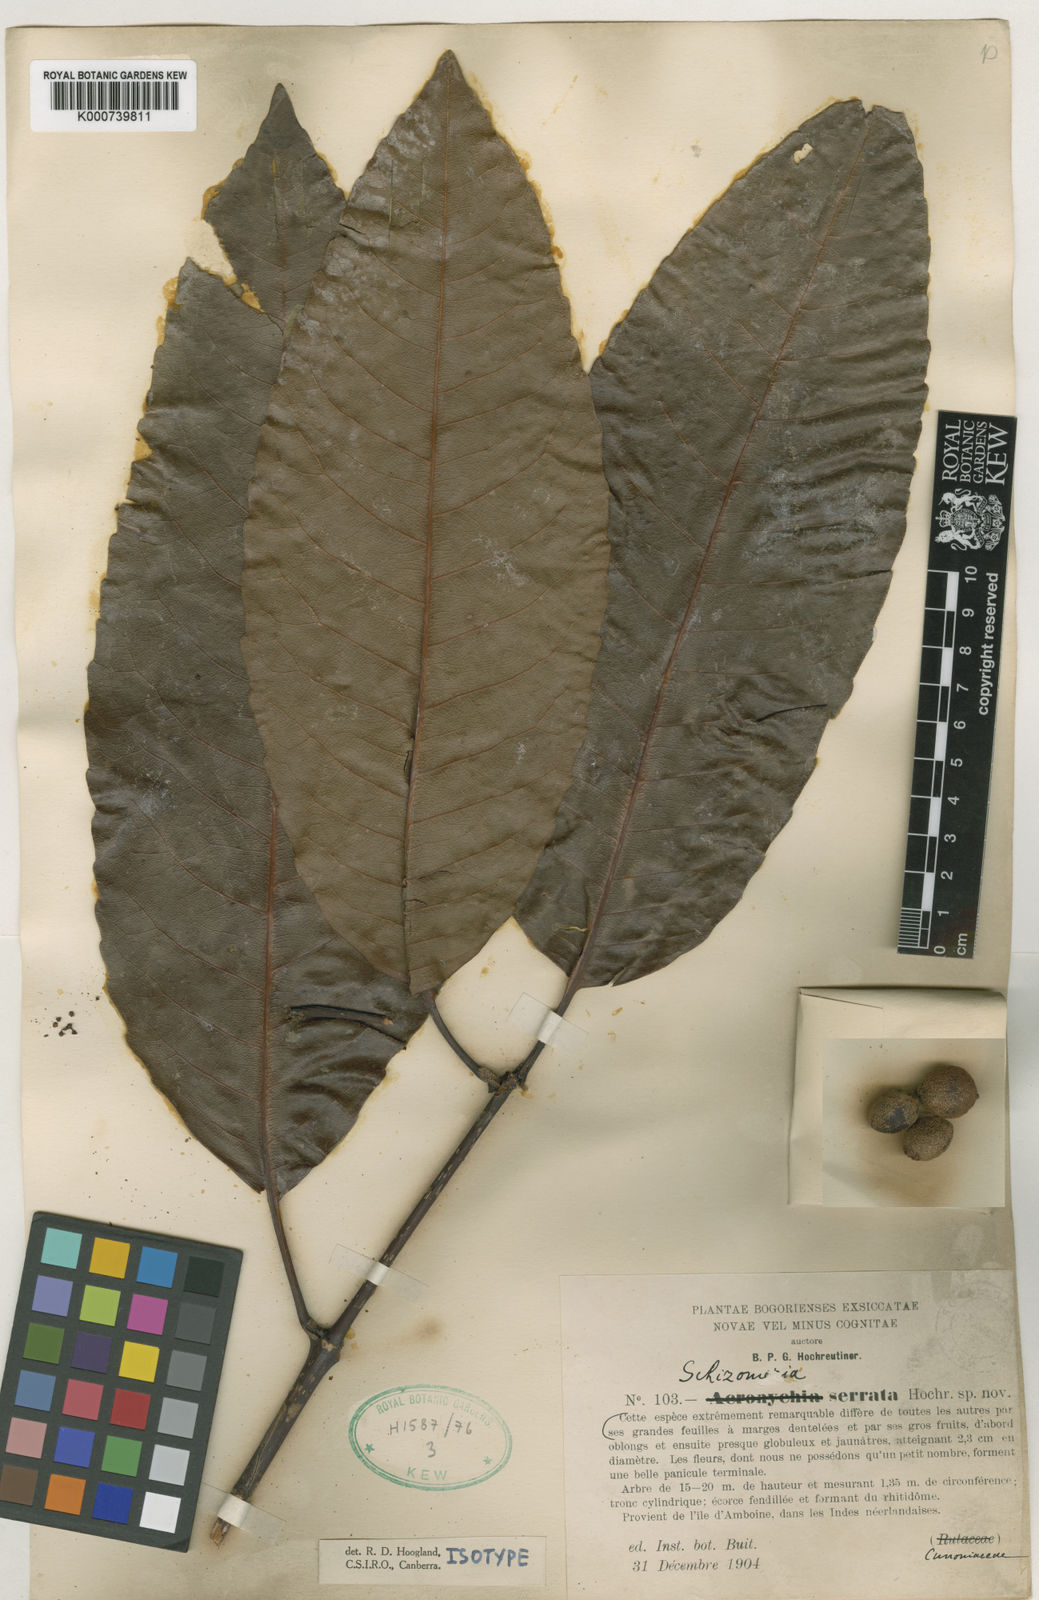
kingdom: Plantae
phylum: Tracheophyta
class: Magnoliopsida
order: Oxalidales
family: Cunoniaceae
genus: Schizomeria
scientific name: Schizomeria serrata
